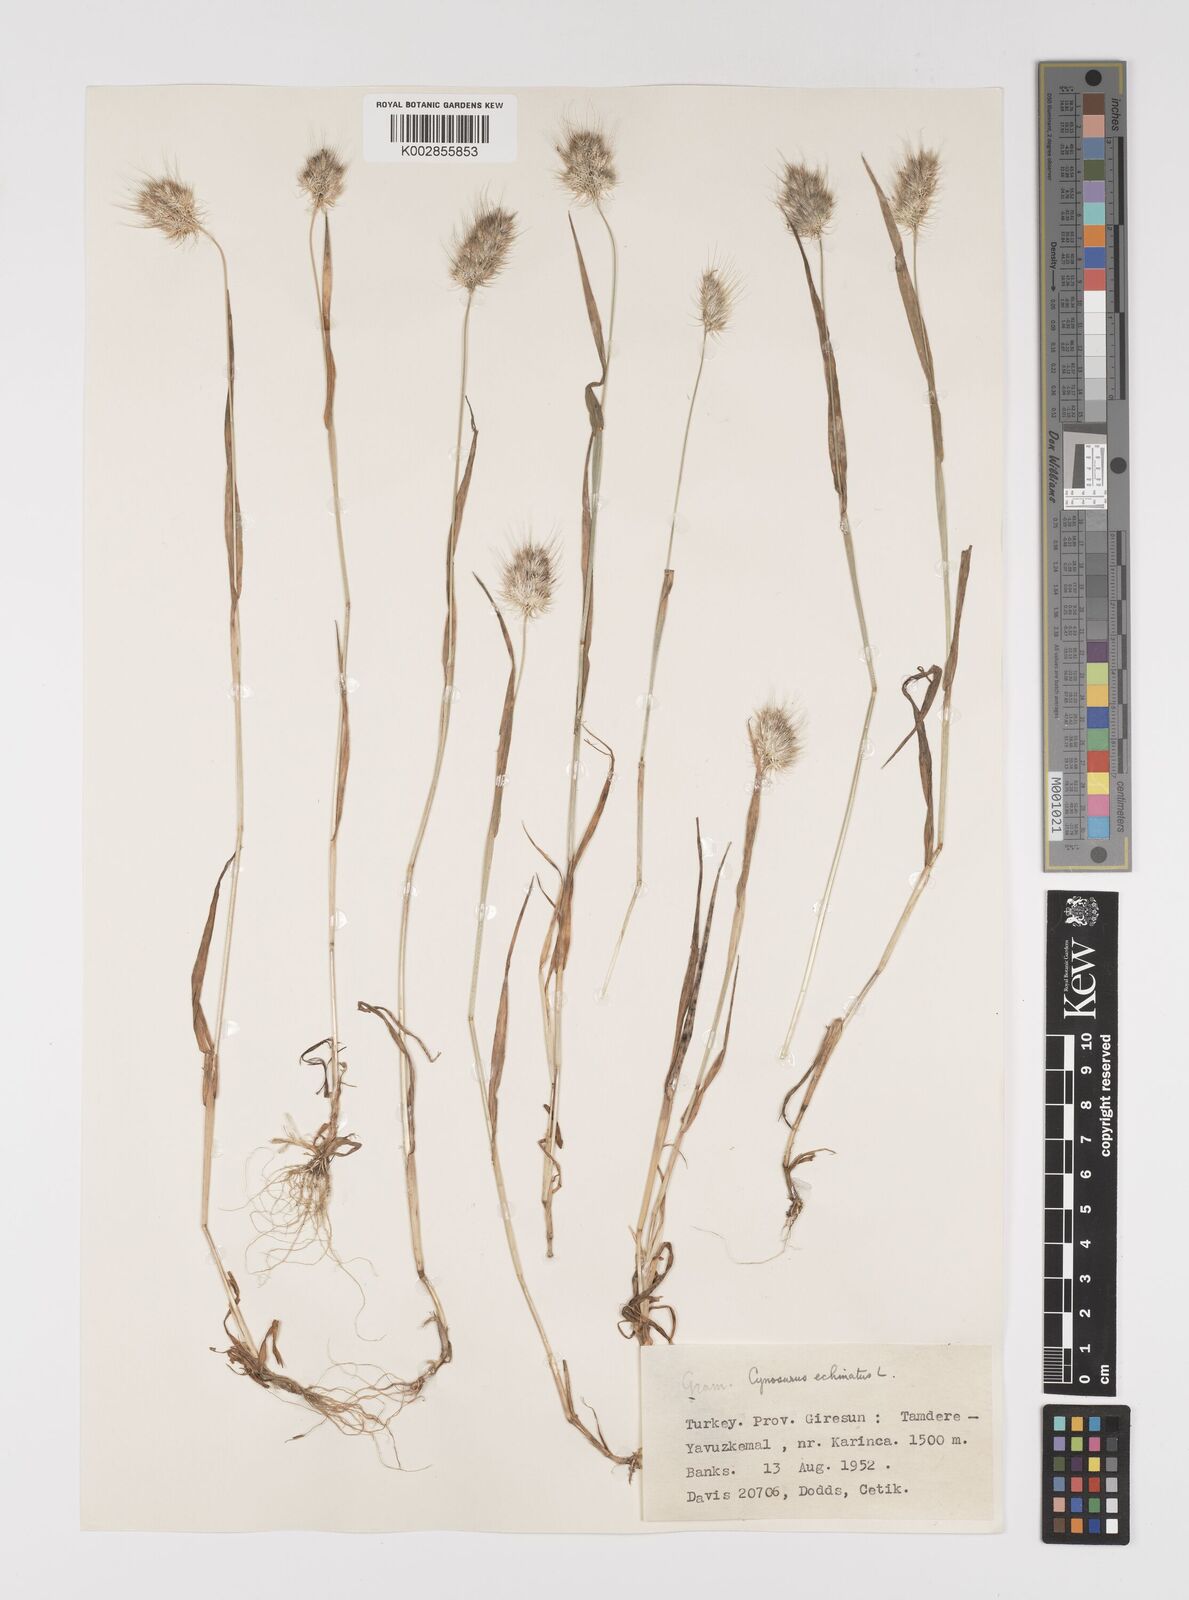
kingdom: Plantae
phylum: Tracheophyta
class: Liliopsida
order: Poales
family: Poaceae
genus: Cynosurus
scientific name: Cynosurus echinatus
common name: Rough dog's-tail
